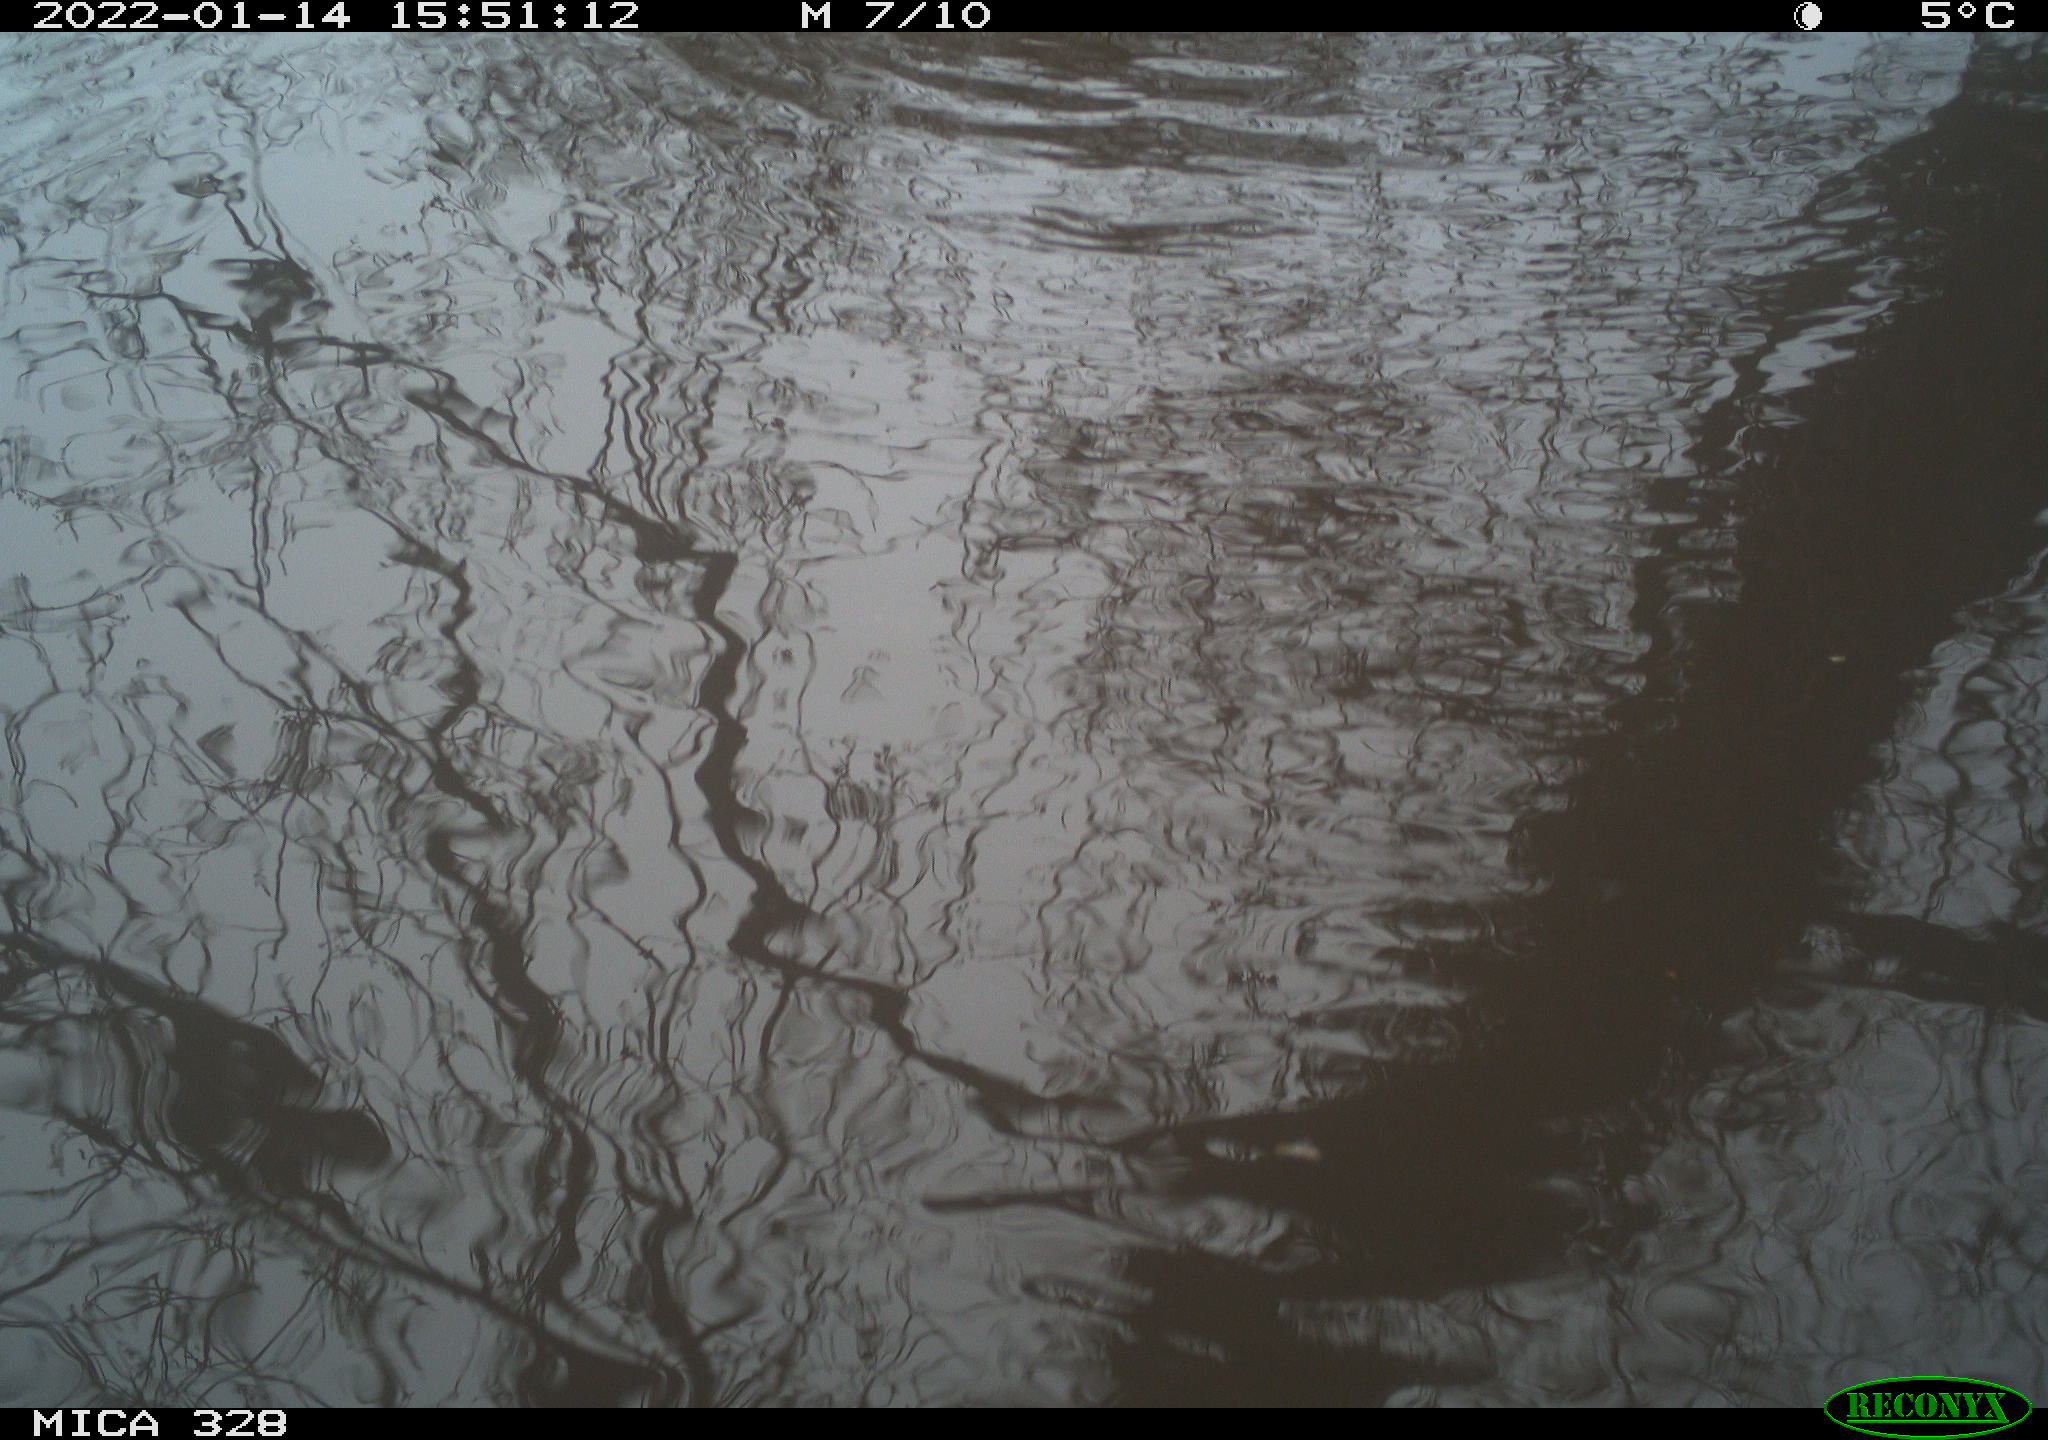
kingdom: Animalia
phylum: Chordata
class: Aves
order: Gruiformes
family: Rallidae
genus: Gallinula
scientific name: Gallinula chloropus
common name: Common moorhen
